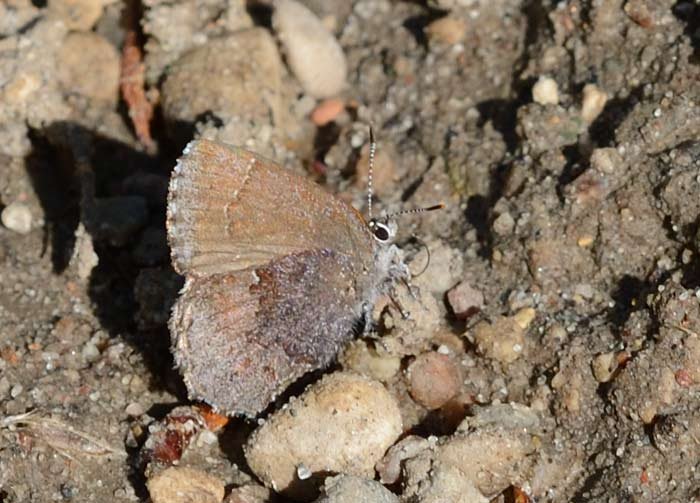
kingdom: Animalia
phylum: Arthropoda
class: Insecta
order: Lepidoptera
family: Lycaenidae
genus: Callophrys
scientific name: Callophrys polios
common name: Hoary Elfin
